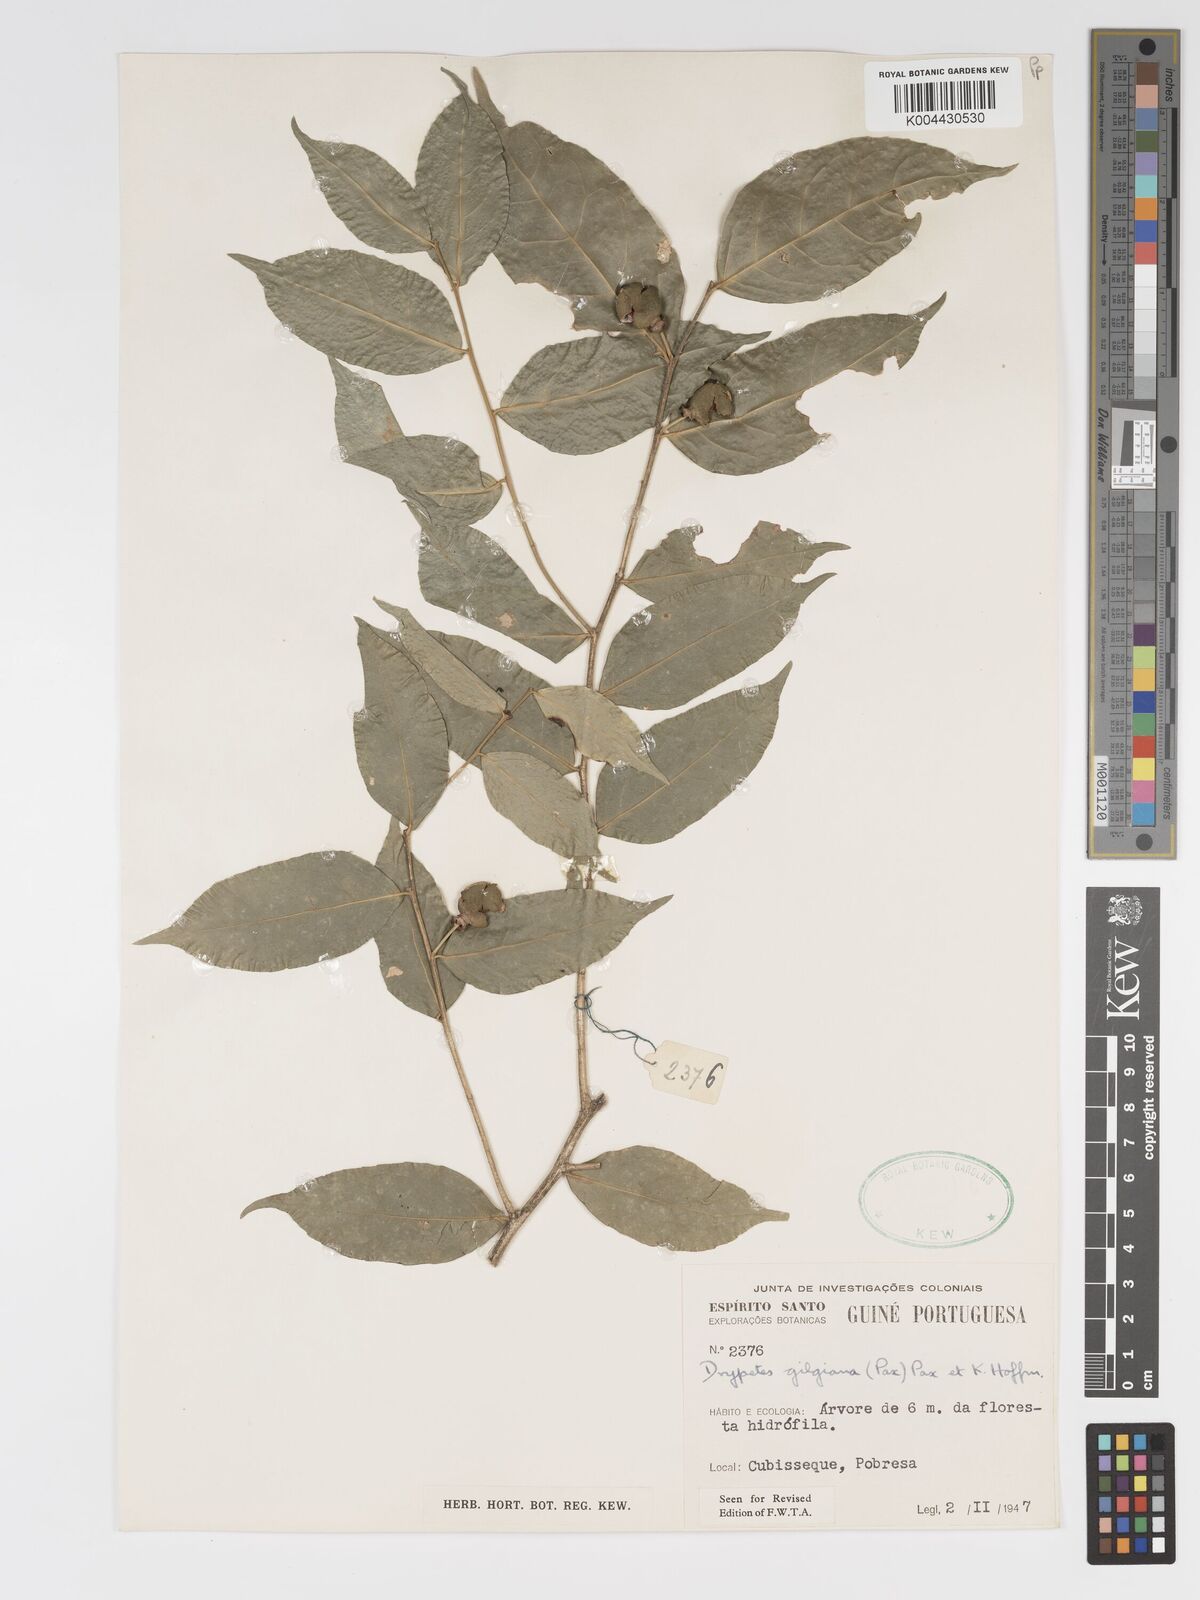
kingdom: Plantae
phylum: Tracheophyta
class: Magnoliopsida
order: Malpighiales
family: Putranjivaceae
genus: Drypetes
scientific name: Drypetes gilgiana
